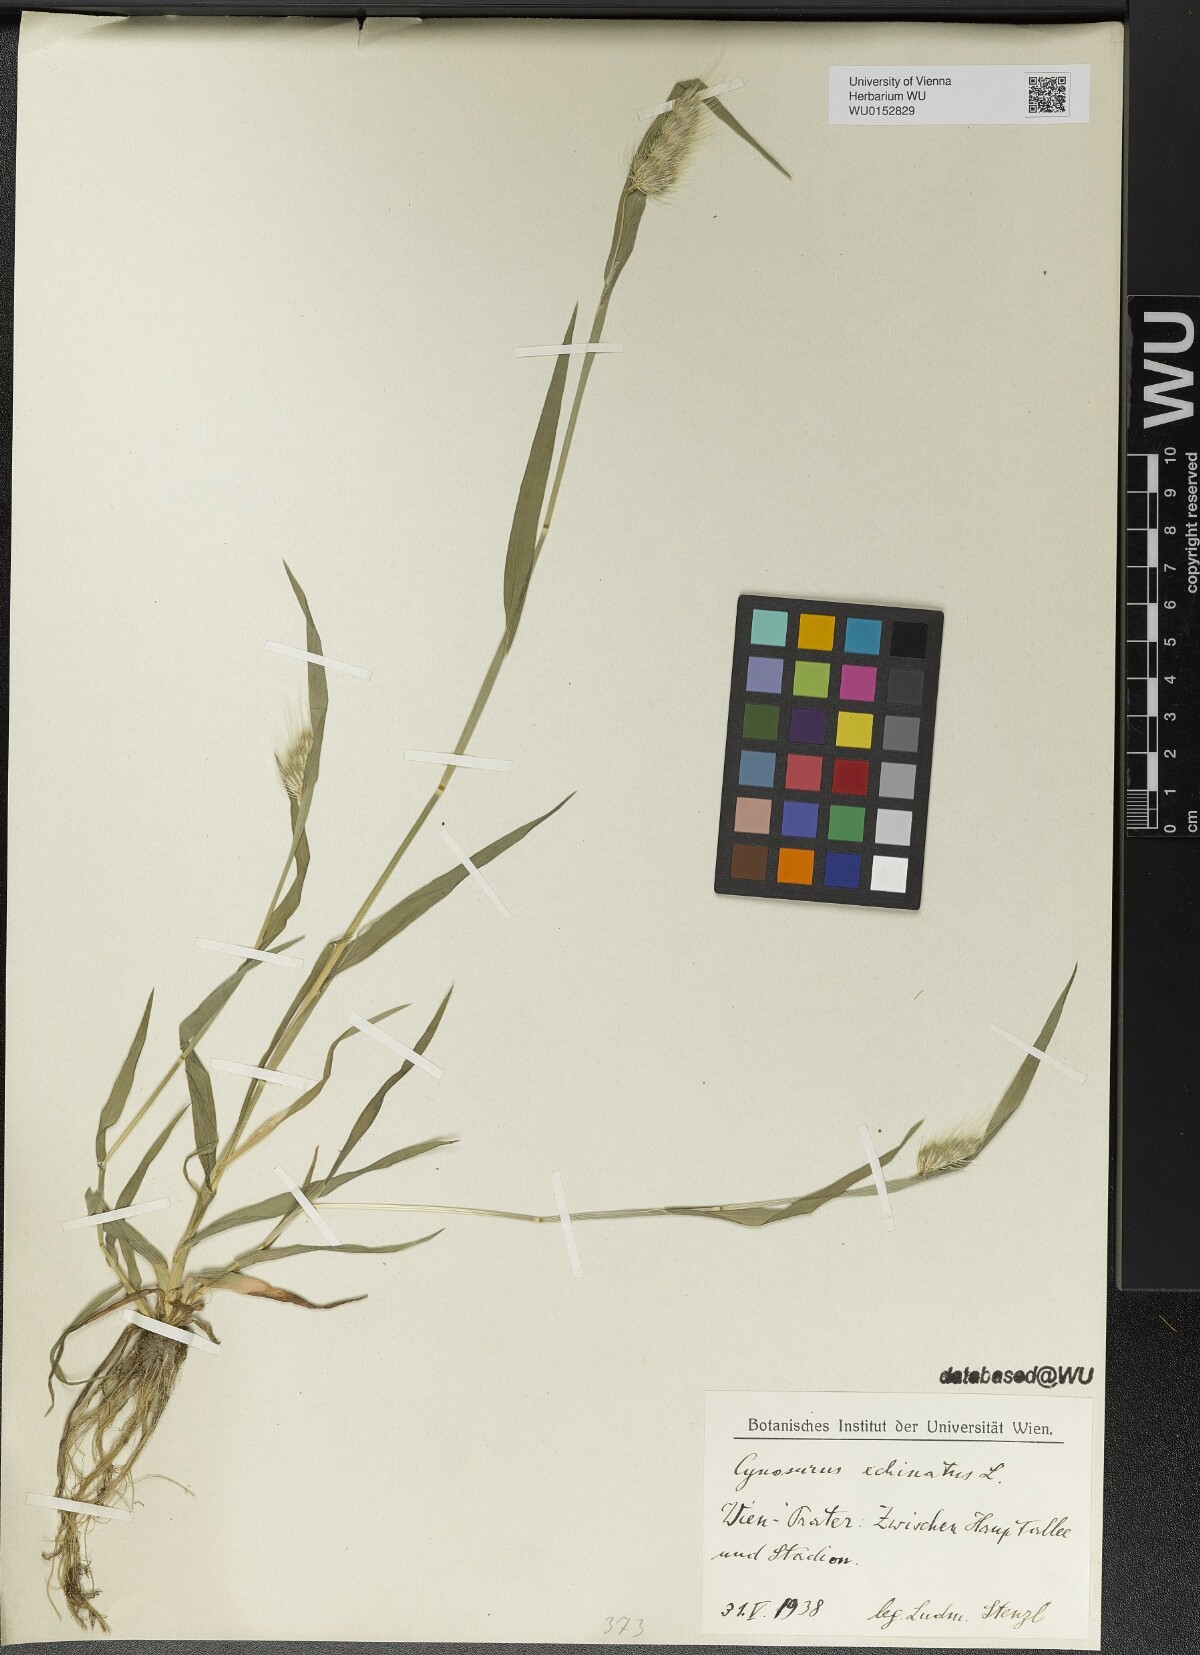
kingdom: Plantae
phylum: Tracheophyta
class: Liliopsida
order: Poales
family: Poaceae
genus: Cynosurus
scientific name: Cynosurus echinatus
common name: Rough dog's-tail
